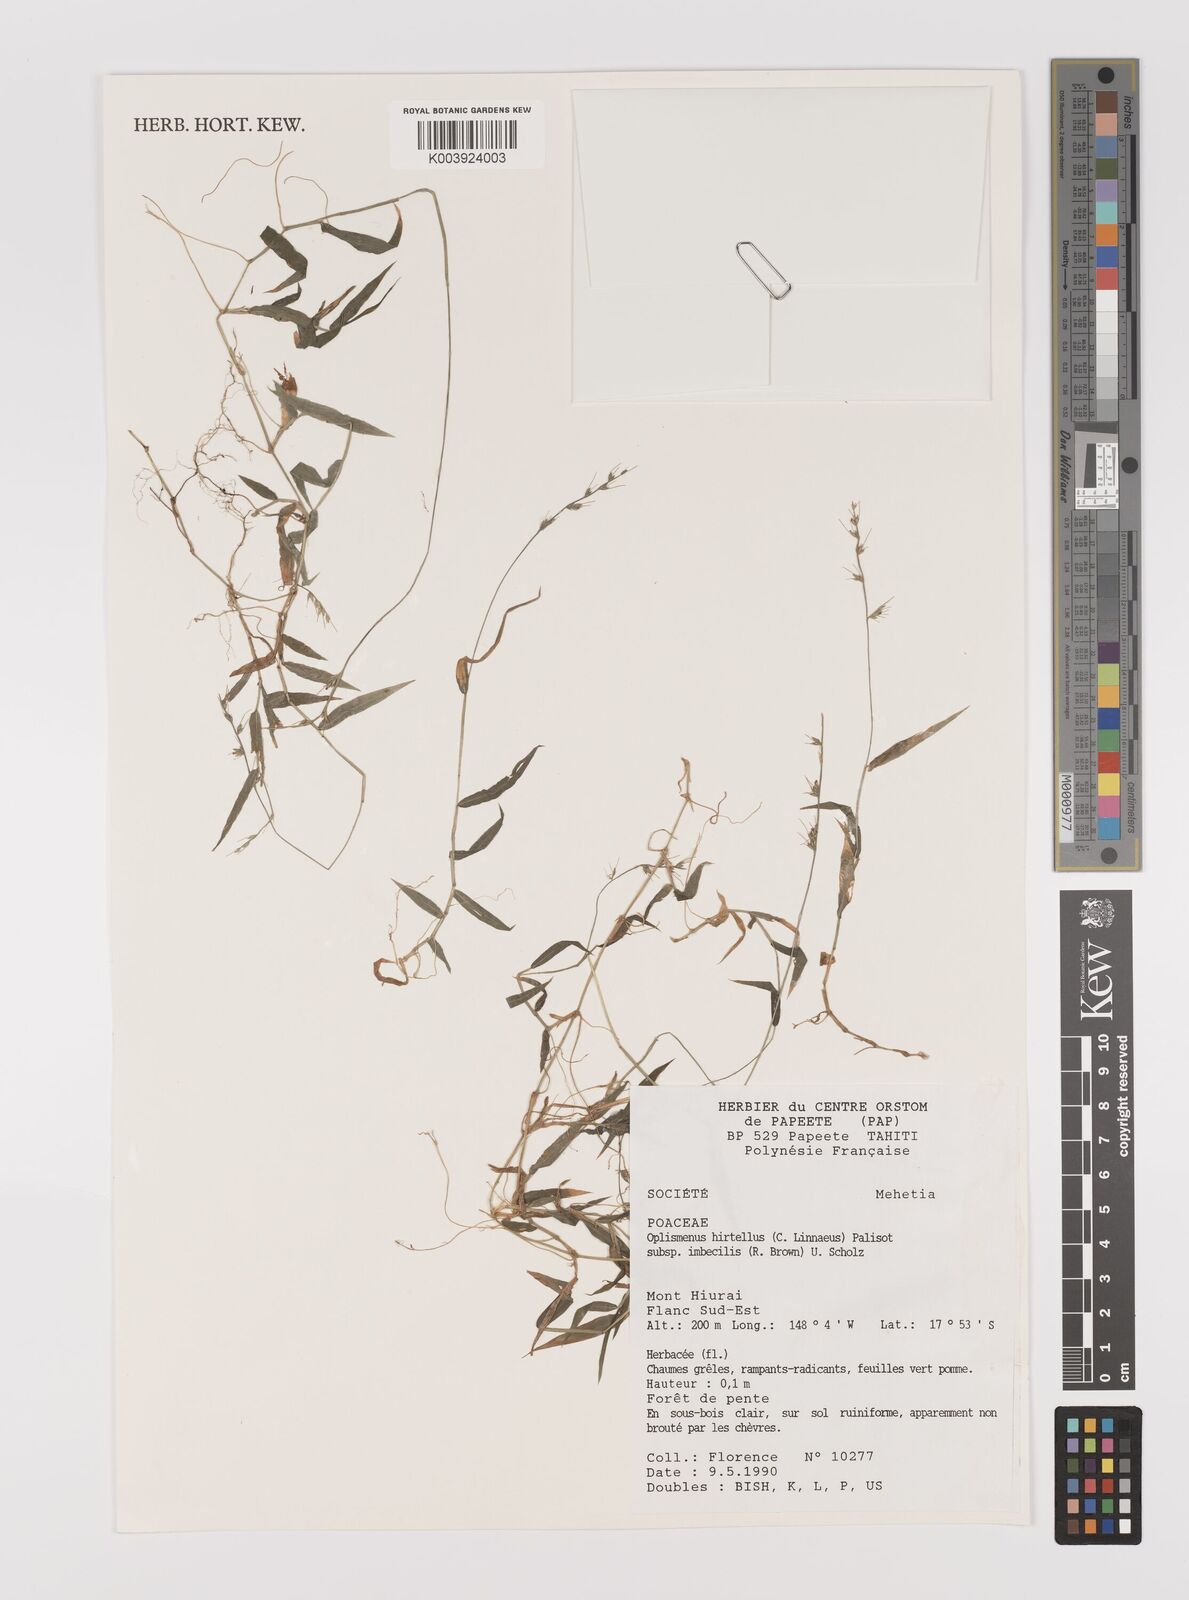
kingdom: Plantae
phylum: Tracheophyta
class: Liliopsida
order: Poales
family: Poaceae
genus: Oplismenus
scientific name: Oplismenus compositus
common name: Running mountain grass
